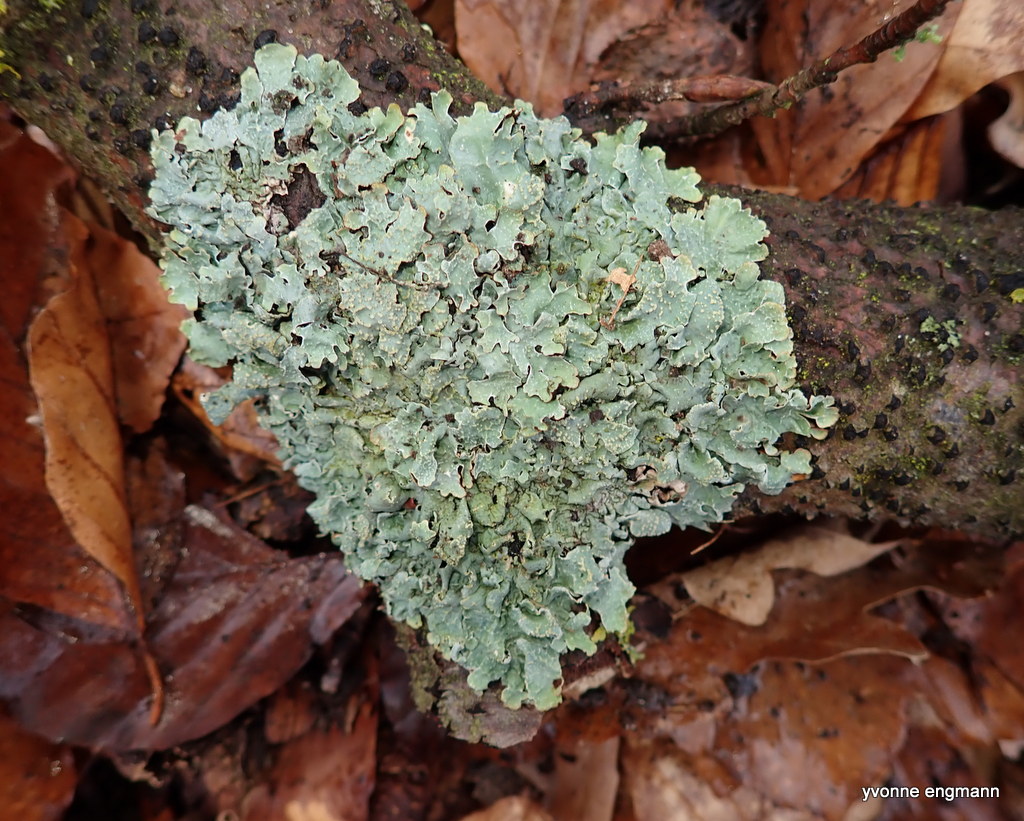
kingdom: Fungi
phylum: Ascomycota
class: Lecanoromycetes
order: Lecanorales
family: Parmeliaceae
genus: Parmelia
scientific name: Parmelia sulcata
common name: rynket skållav
